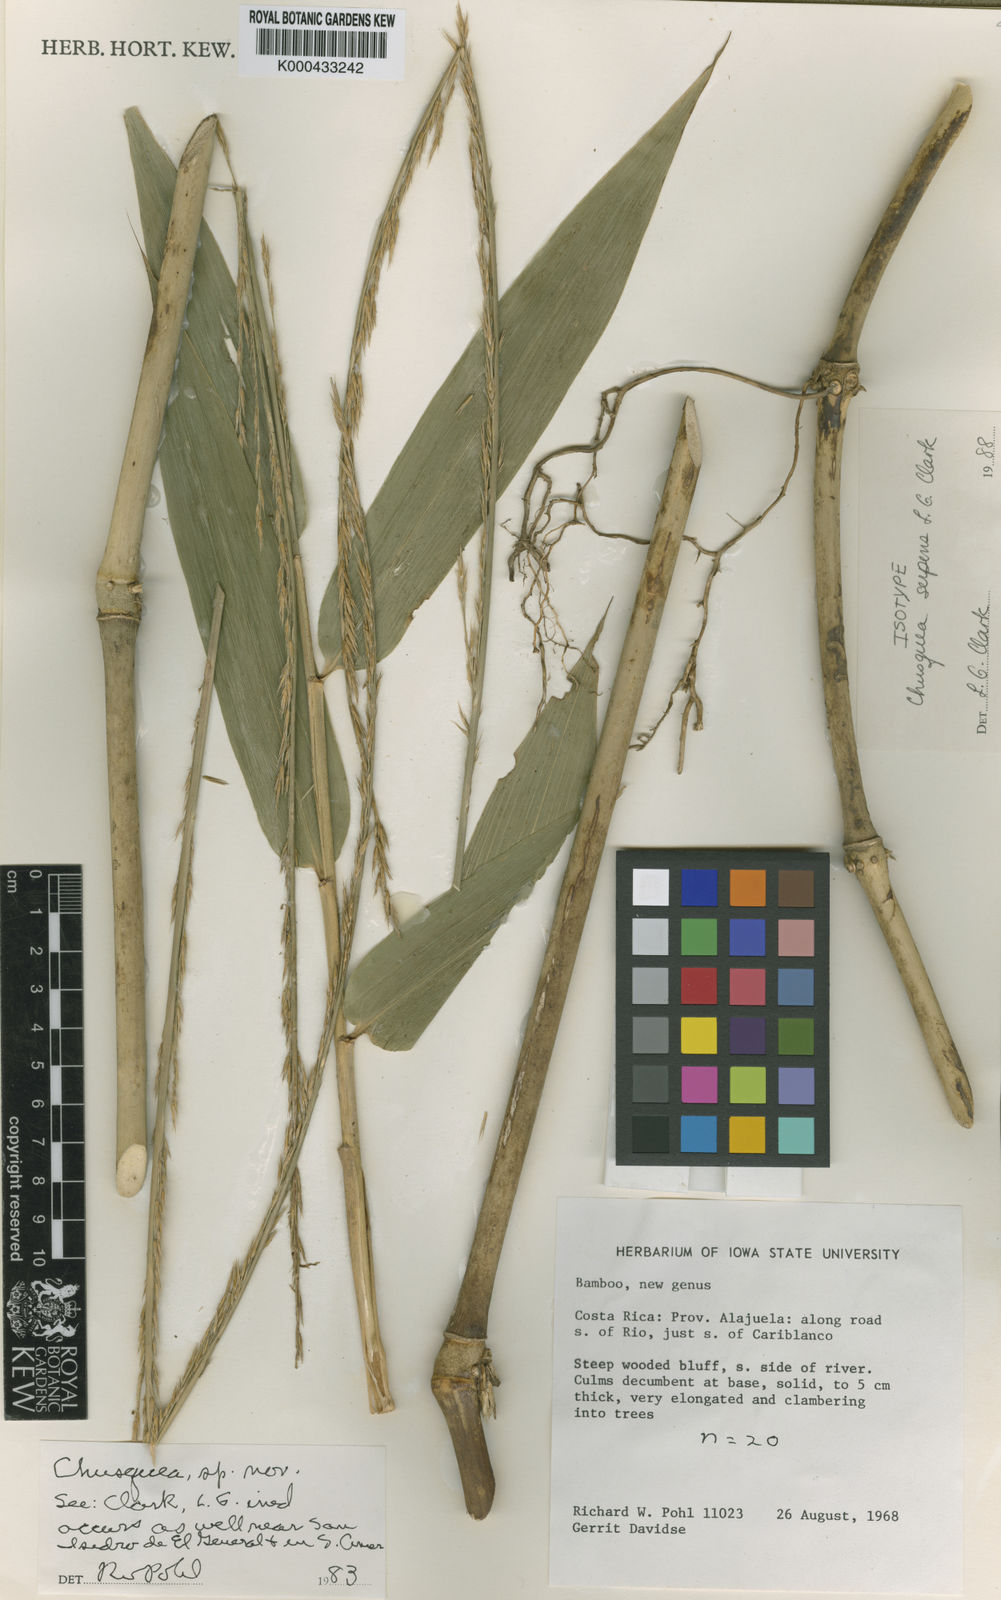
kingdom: Plantae
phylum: Tracheophyta
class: Liliopsida
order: Poales
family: Poaceae
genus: Chusquea
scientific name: Chusquea serpens
